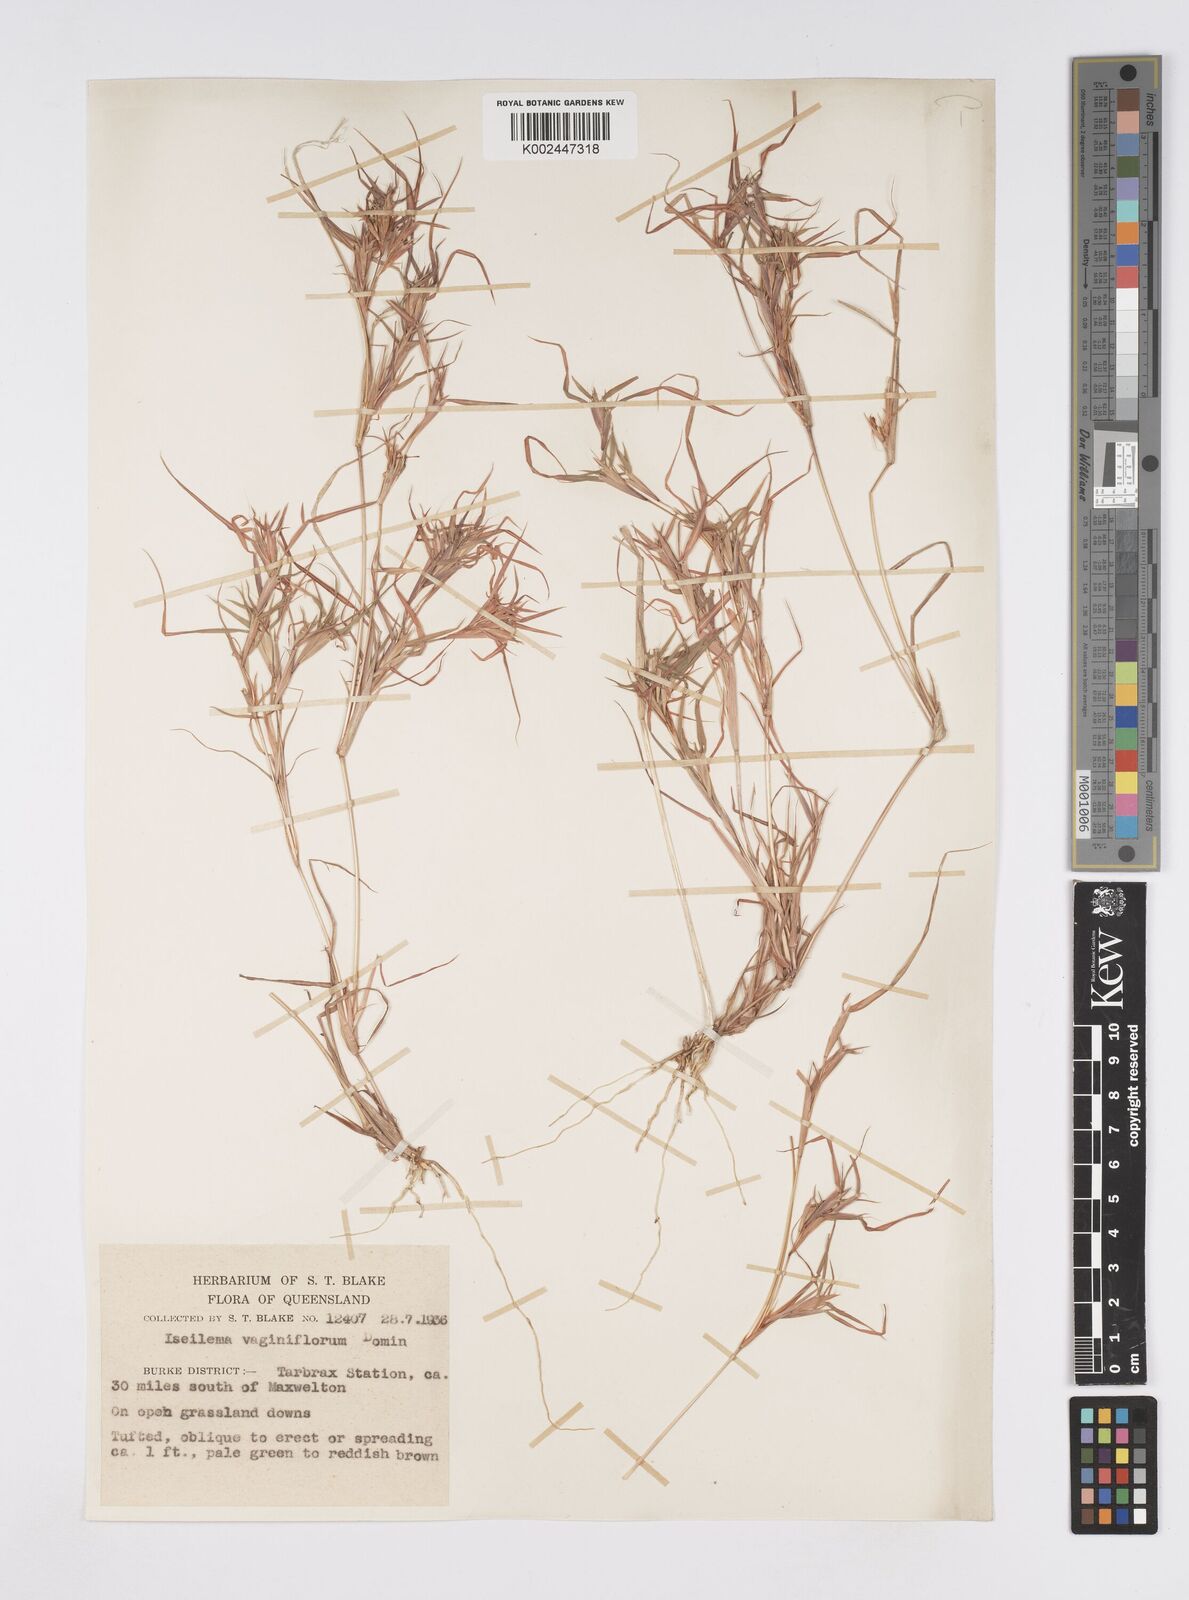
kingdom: Plantae
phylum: Tracheophyta
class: Liliopsida
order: Poales
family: Poaceae
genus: Iseilema
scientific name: Iseilema vaginiflorum
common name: Red flinders grass
